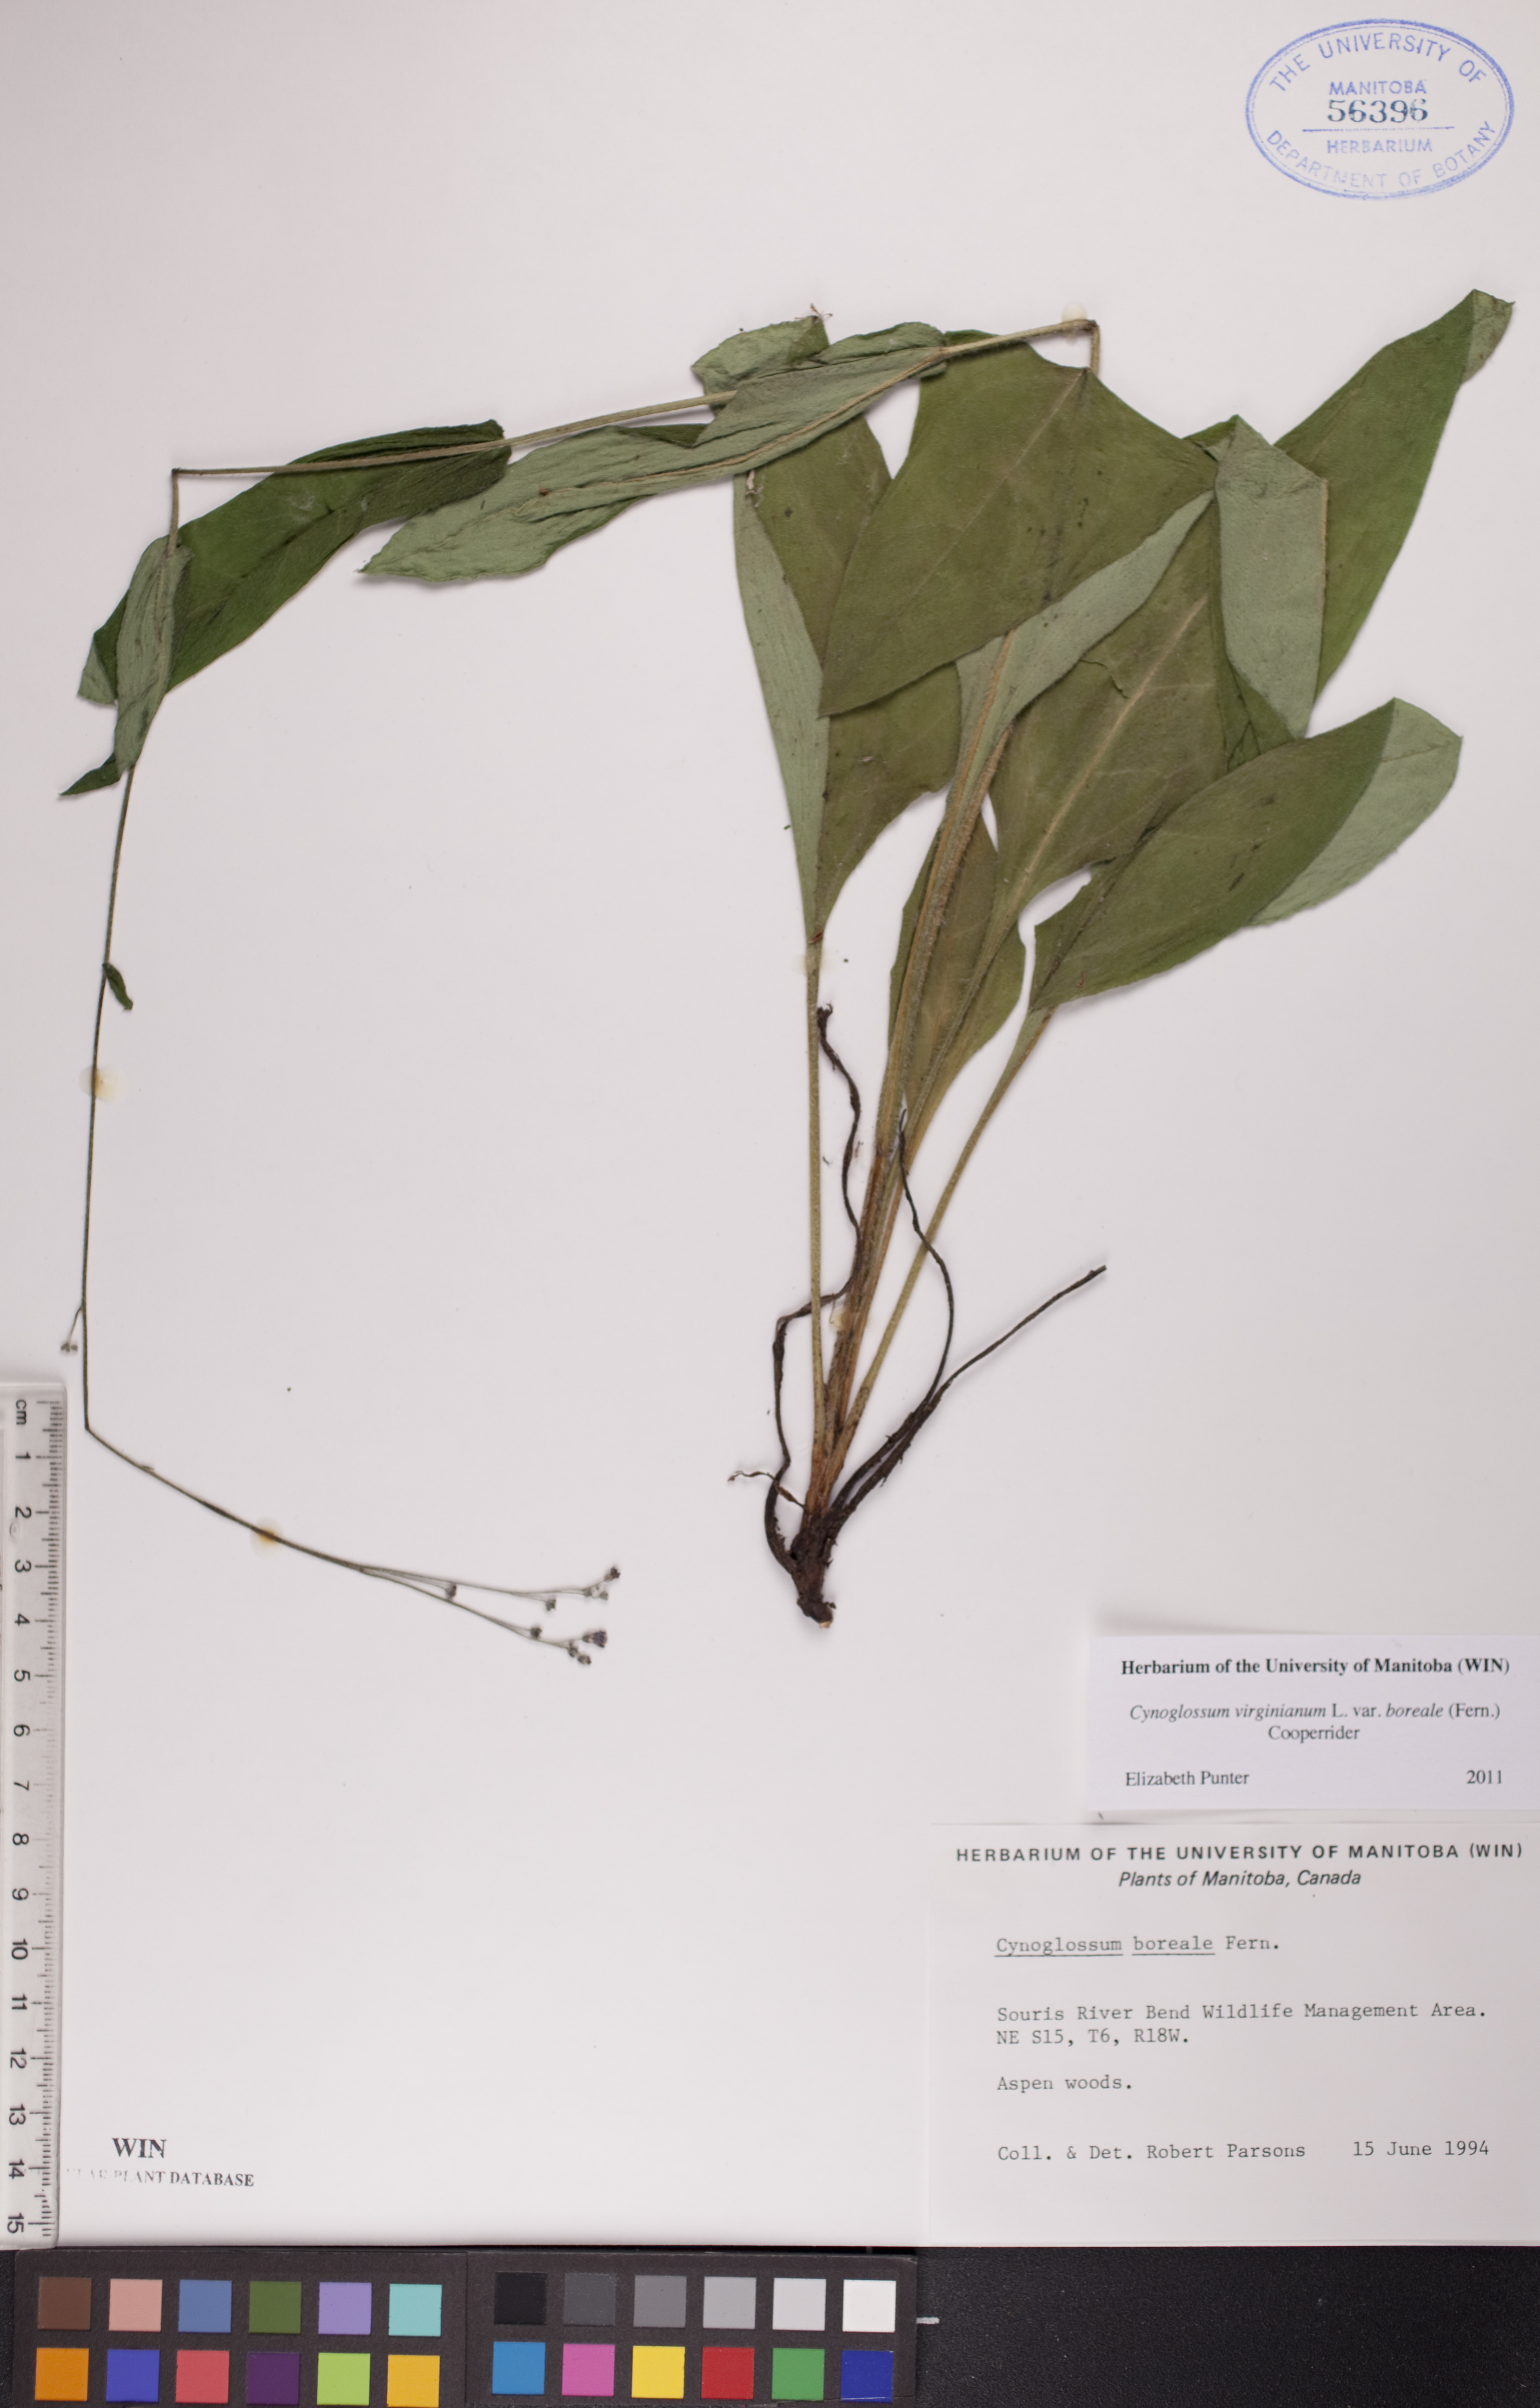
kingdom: Plantae
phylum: Tracheophyta
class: Magnoliopsida
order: Boraginales
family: Boraginaceae
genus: Andersonglossum
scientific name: Andersonglossum boreale
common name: Northern hound's-tongue
